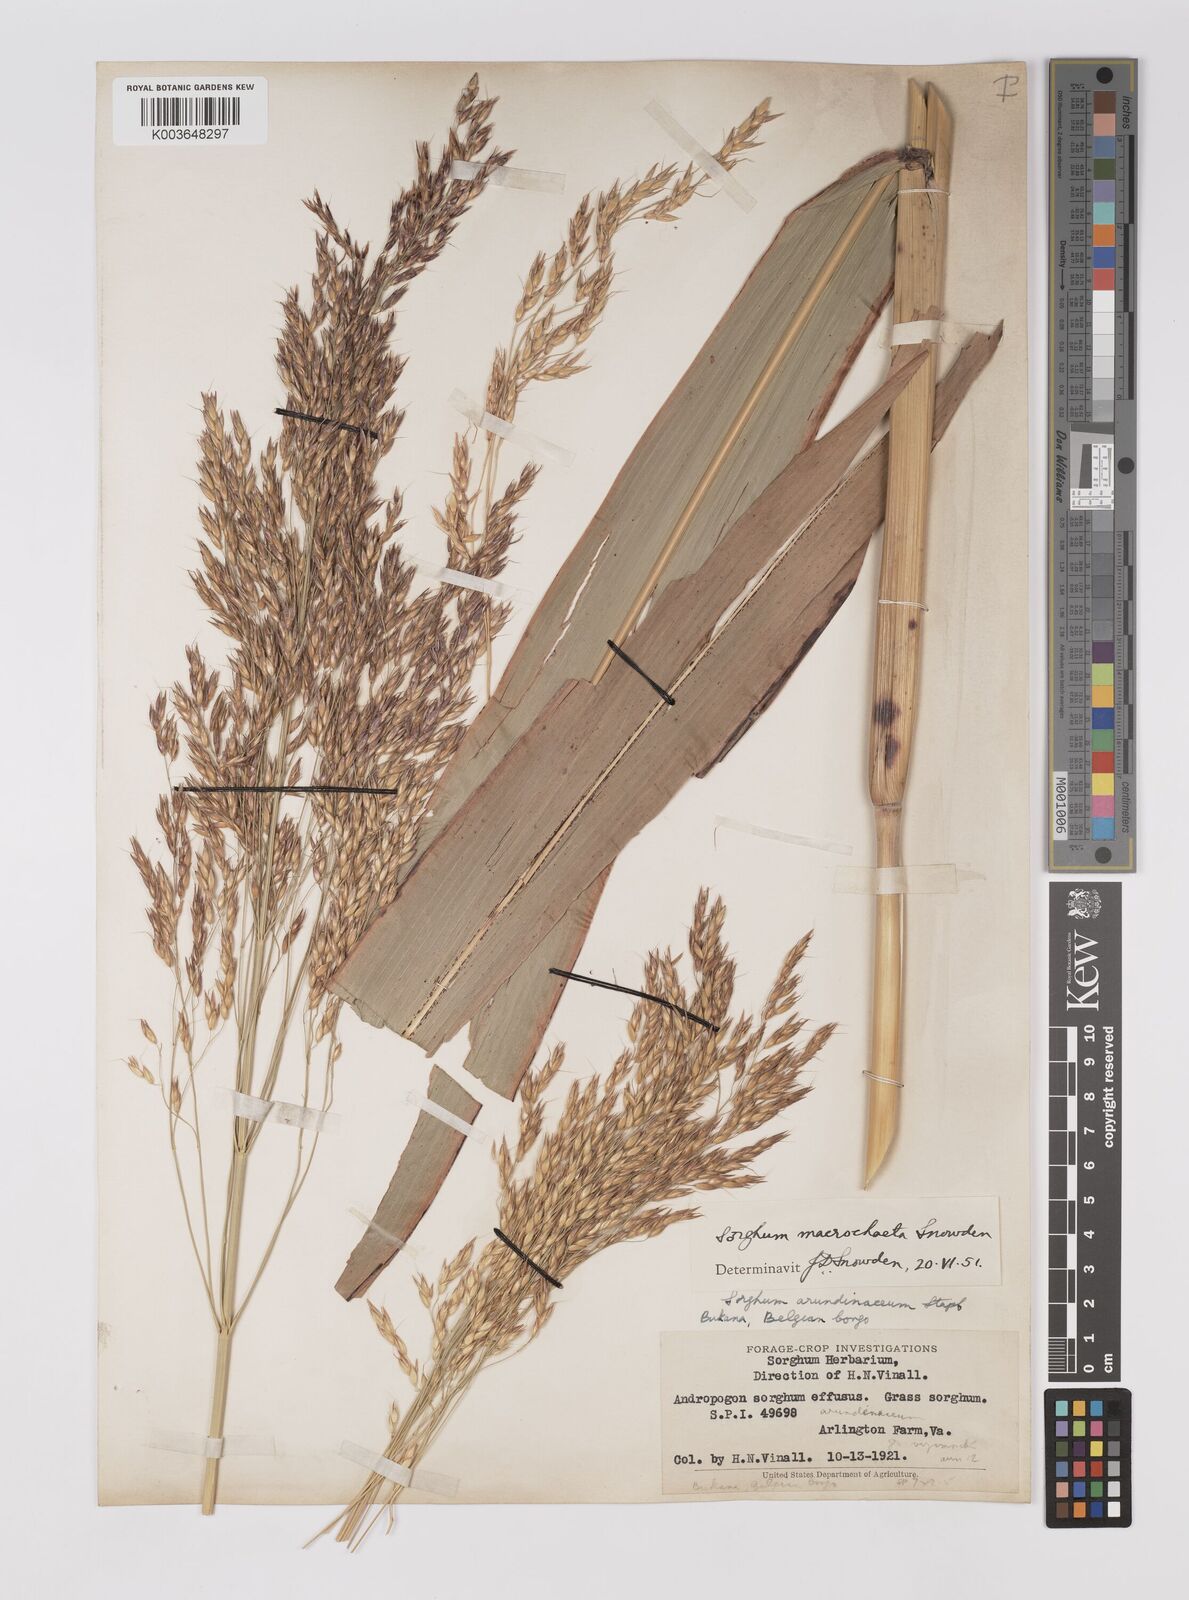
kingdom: Plantae
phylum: Tracheophyta
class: Liliopsida
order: Poales
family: Poaceae
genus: Sorghum
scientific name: Sorghum arundinaceum
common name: Sorghum
